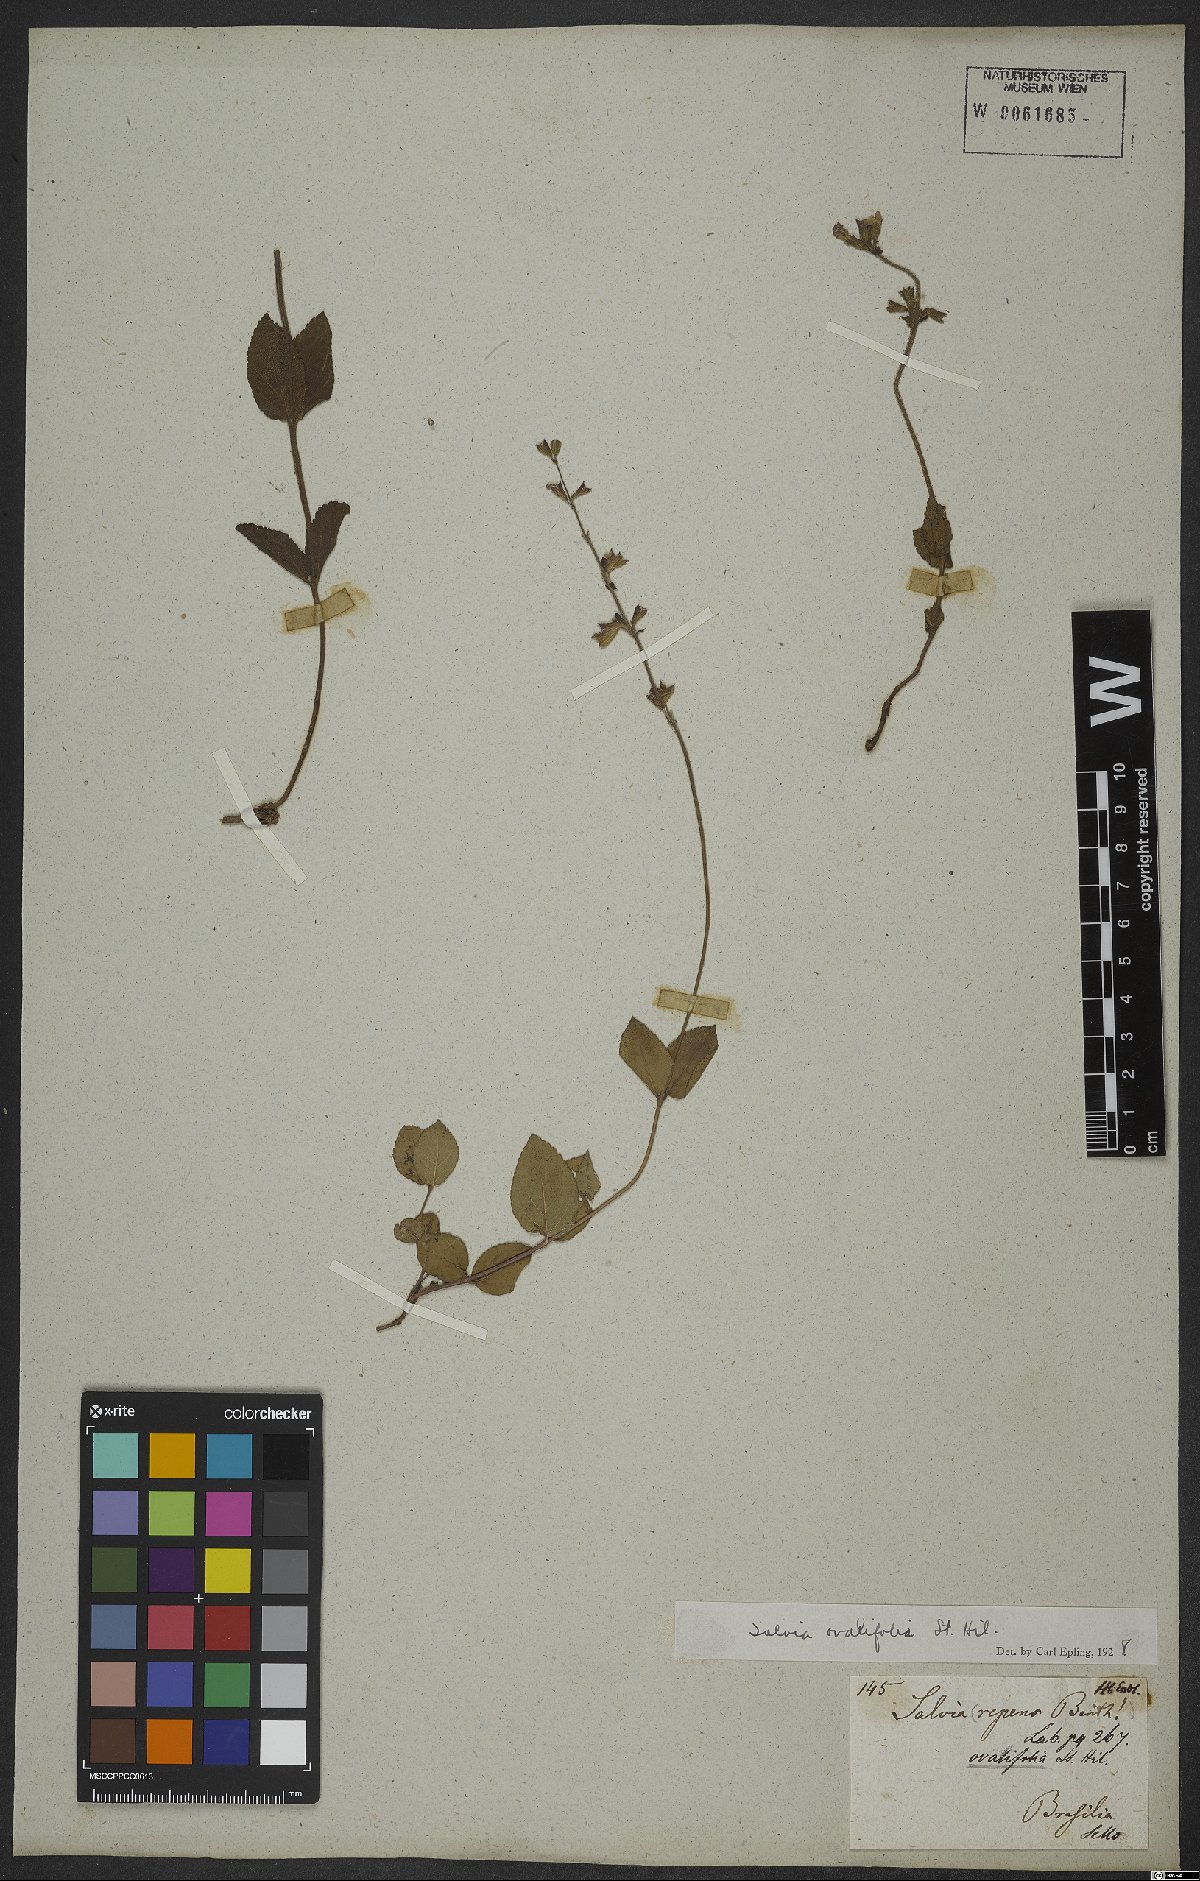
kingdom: Plantae
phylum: Tracheophyta
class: Magnoliopsida
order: Lamiales
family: Lamiaceae
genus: Salvia
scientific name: Salvia ovalifolia
